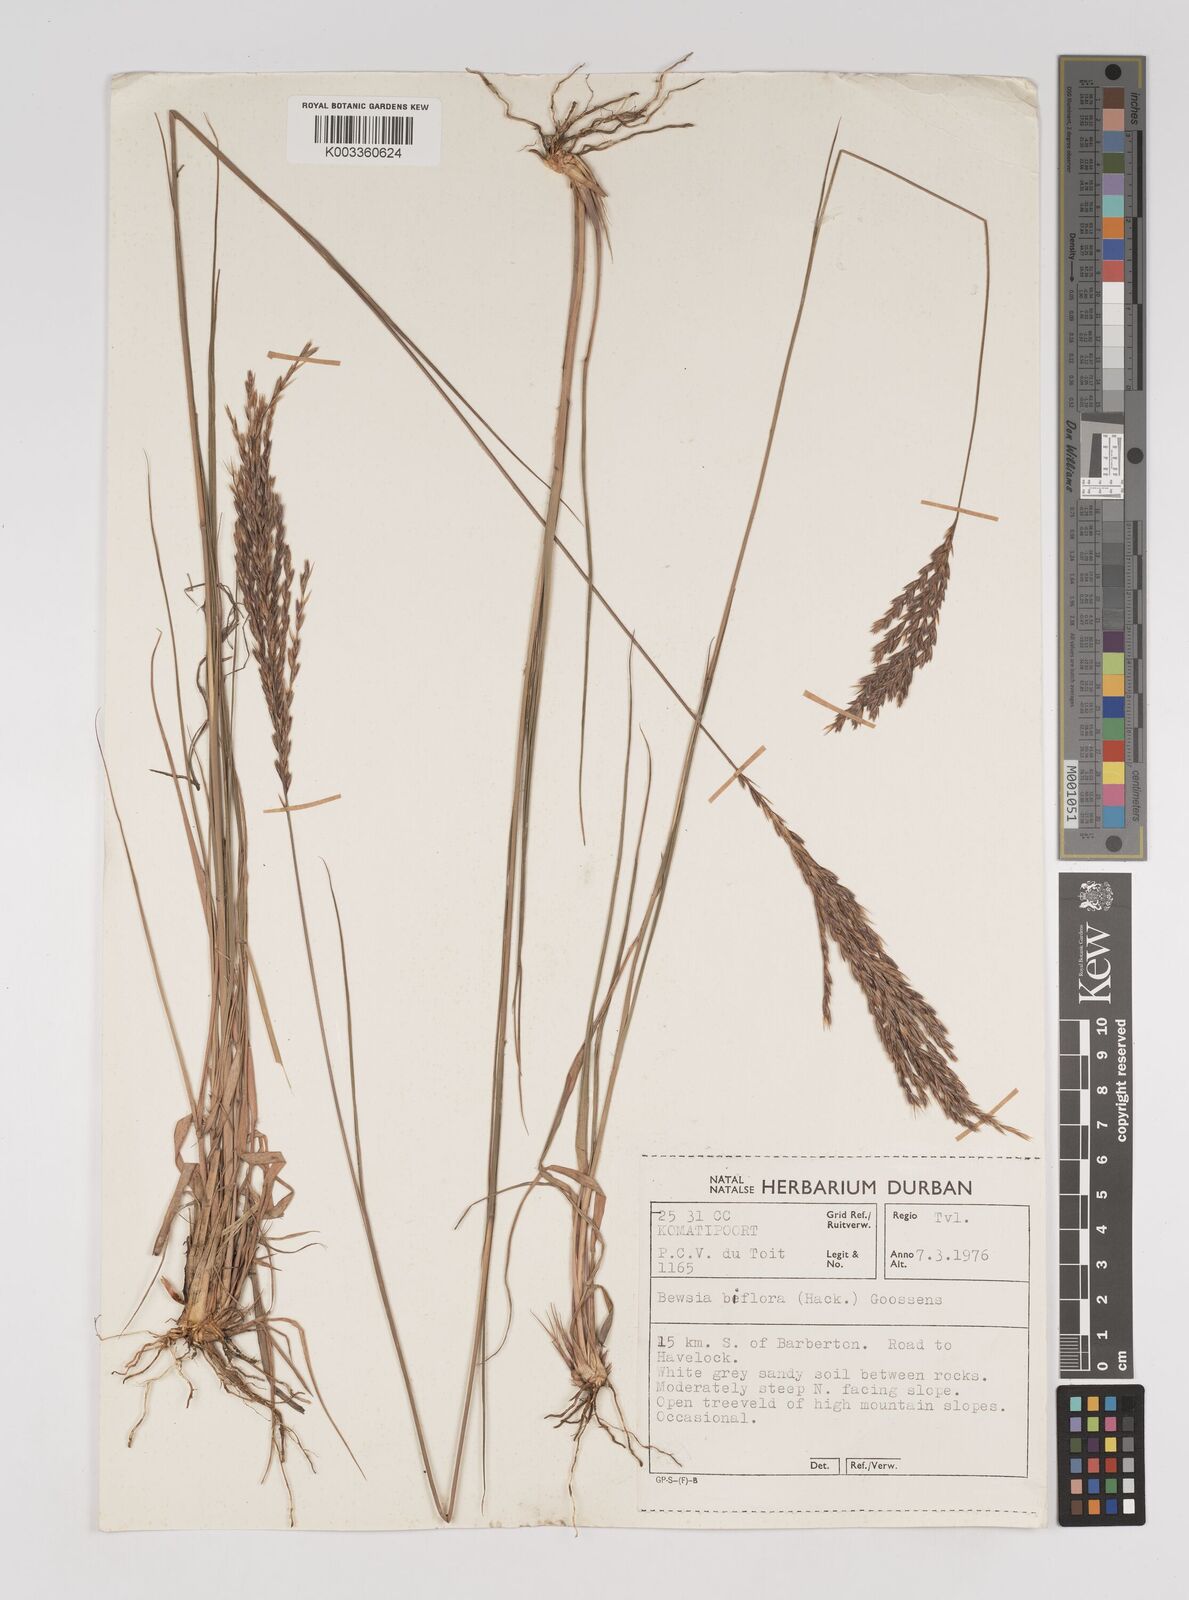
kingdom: Plantae
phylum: Tracheophyta
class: Liliopsida
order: Poales
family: Poaceae
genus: Bewsia
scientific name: Bewsia biflora
